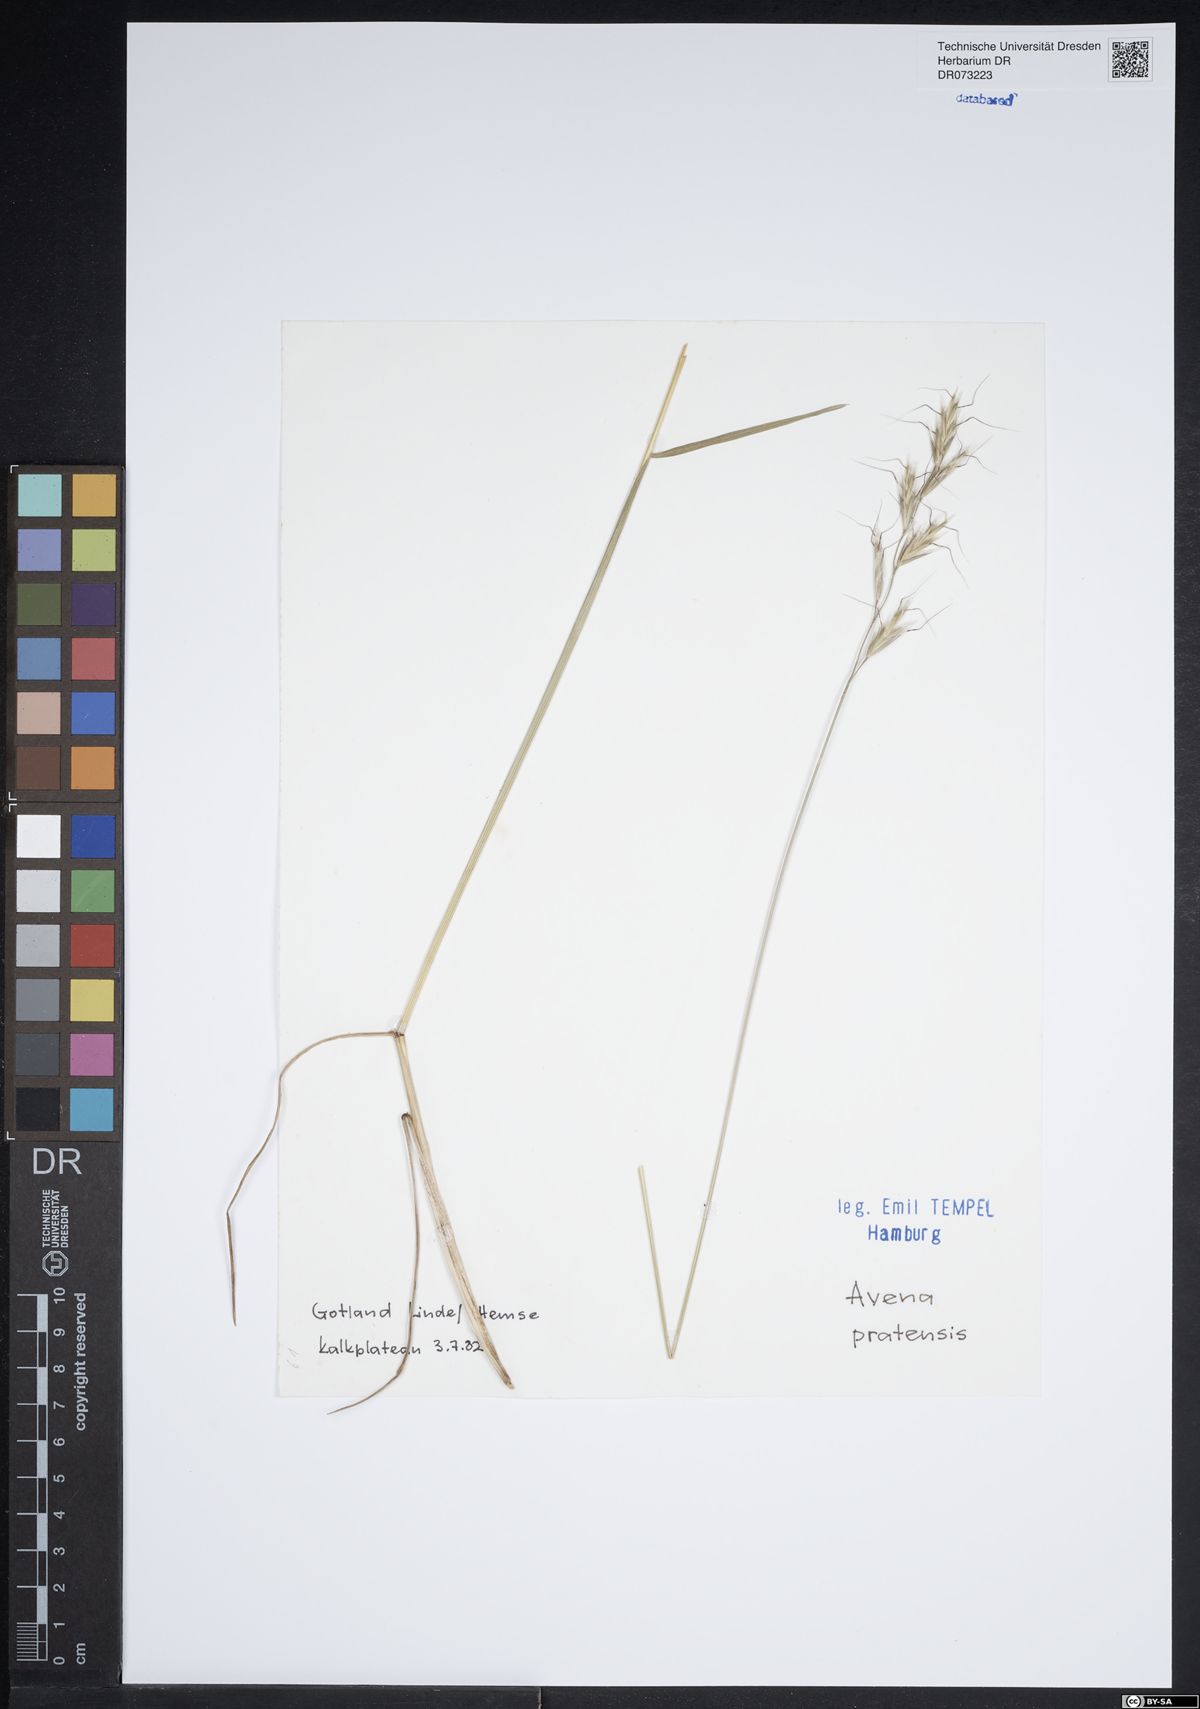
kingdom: Plantae
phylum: Tracheophyta
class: Liliopsida
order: Poales
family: Poaceae
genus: Helictochloa
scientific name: Helictochloa pratensis
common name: Meadow oat grass
